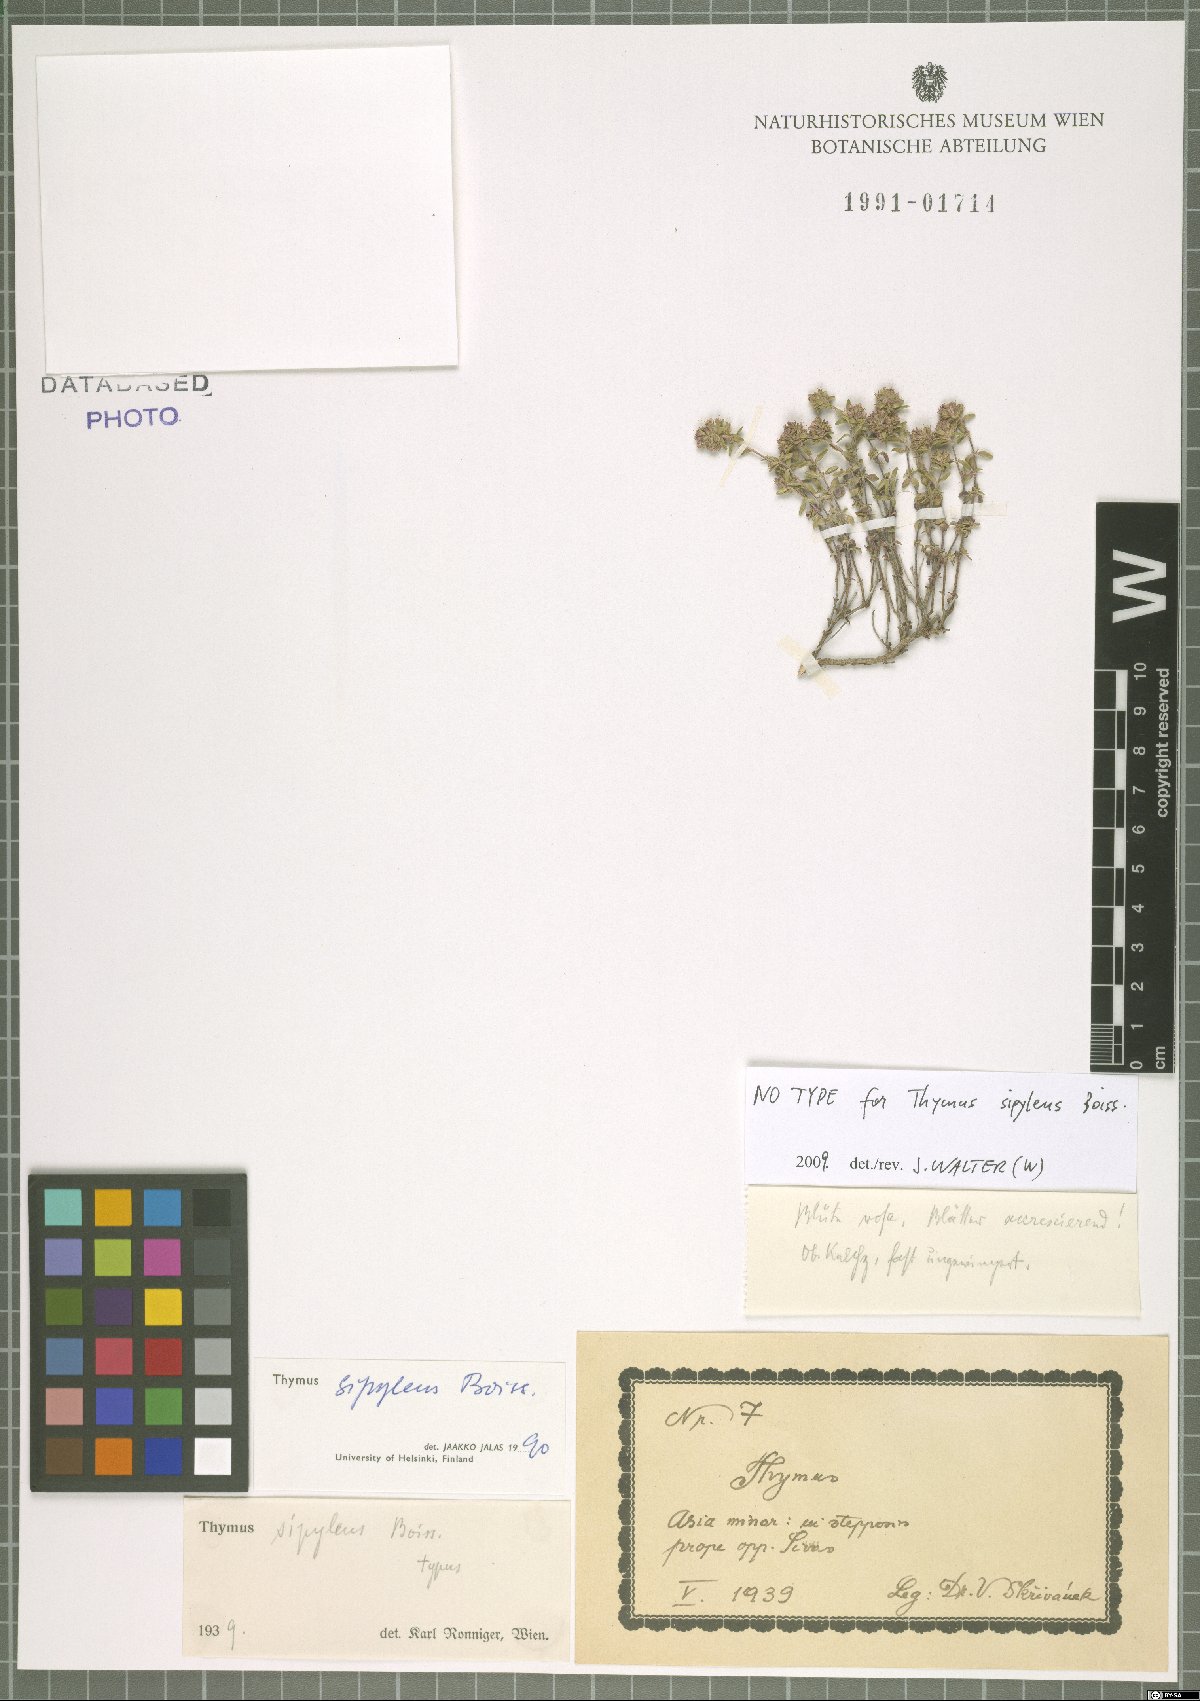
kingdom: Plantae
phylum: Tracheophyta
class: Magnoliopsida
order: Lamiales
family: Lamiaceae
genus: Thymus
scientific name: Thymus sipyleus
